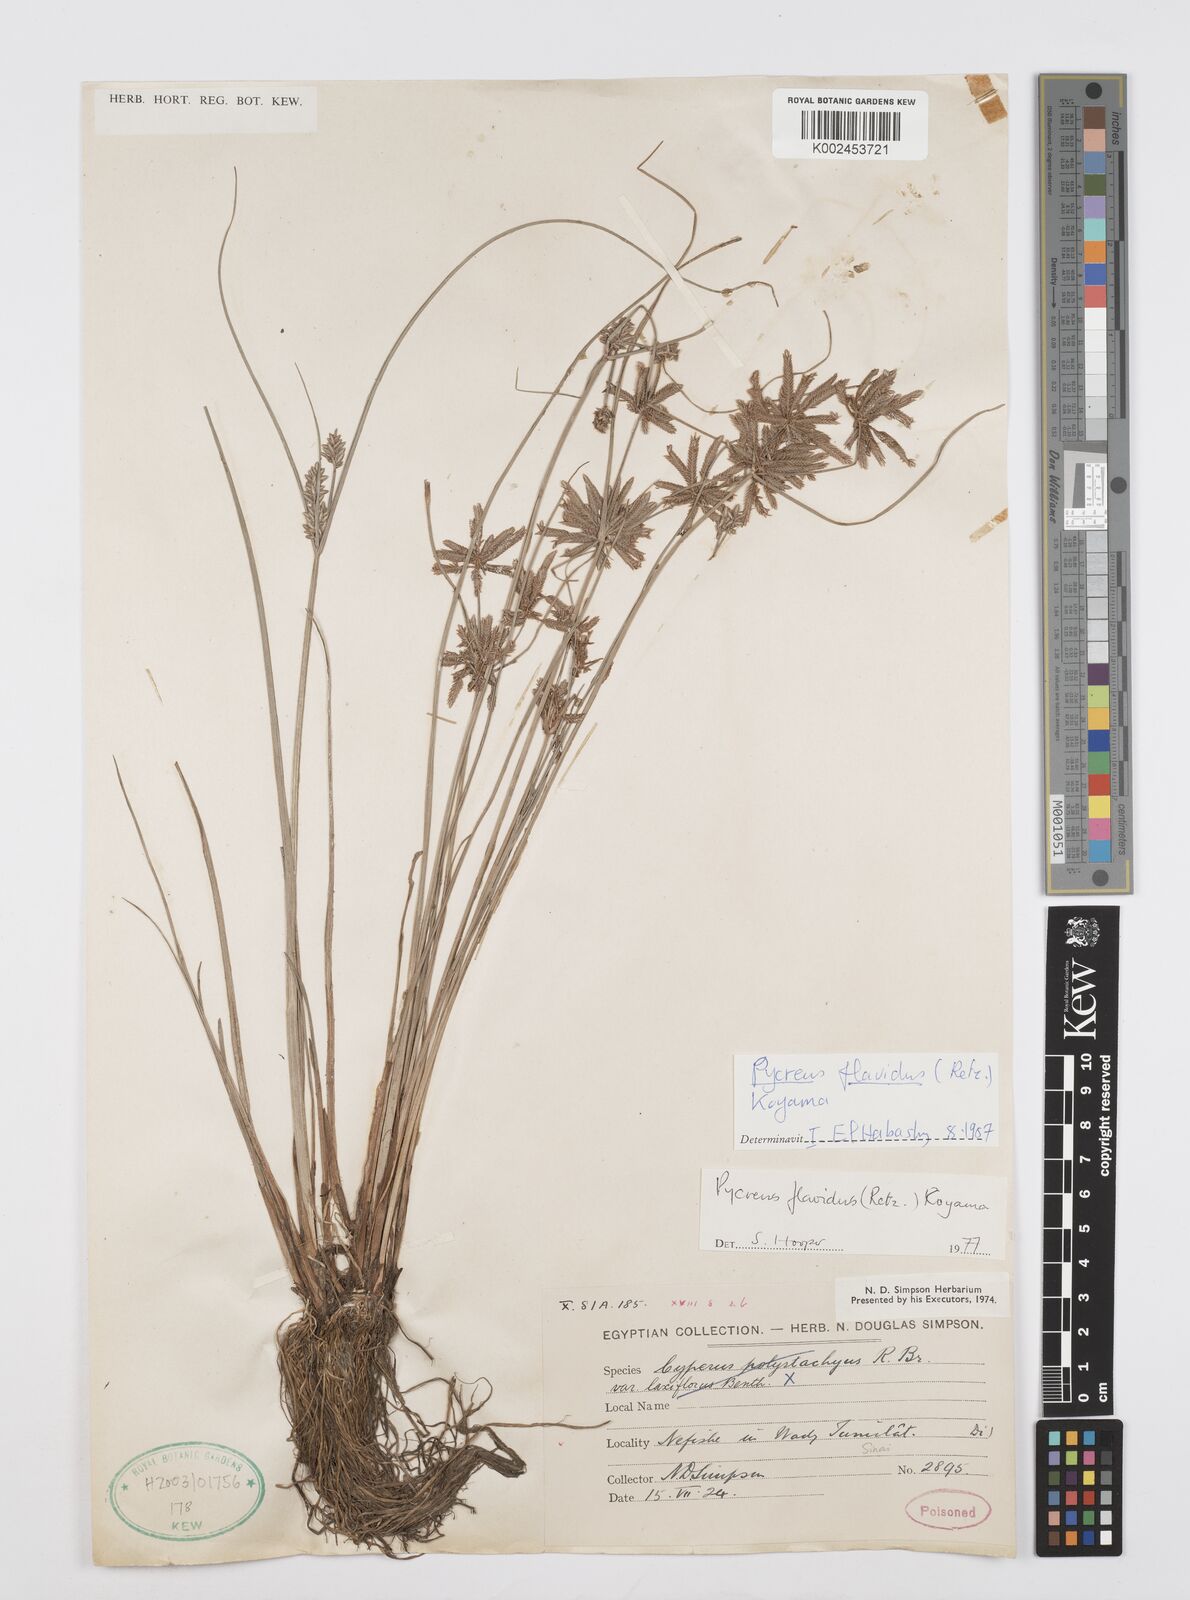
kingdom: Plantae
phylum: Tracheophyta
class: Liliopsida
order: Poales
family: Cyperaceae
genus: Cyperus
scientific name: Cyperus flavidus
